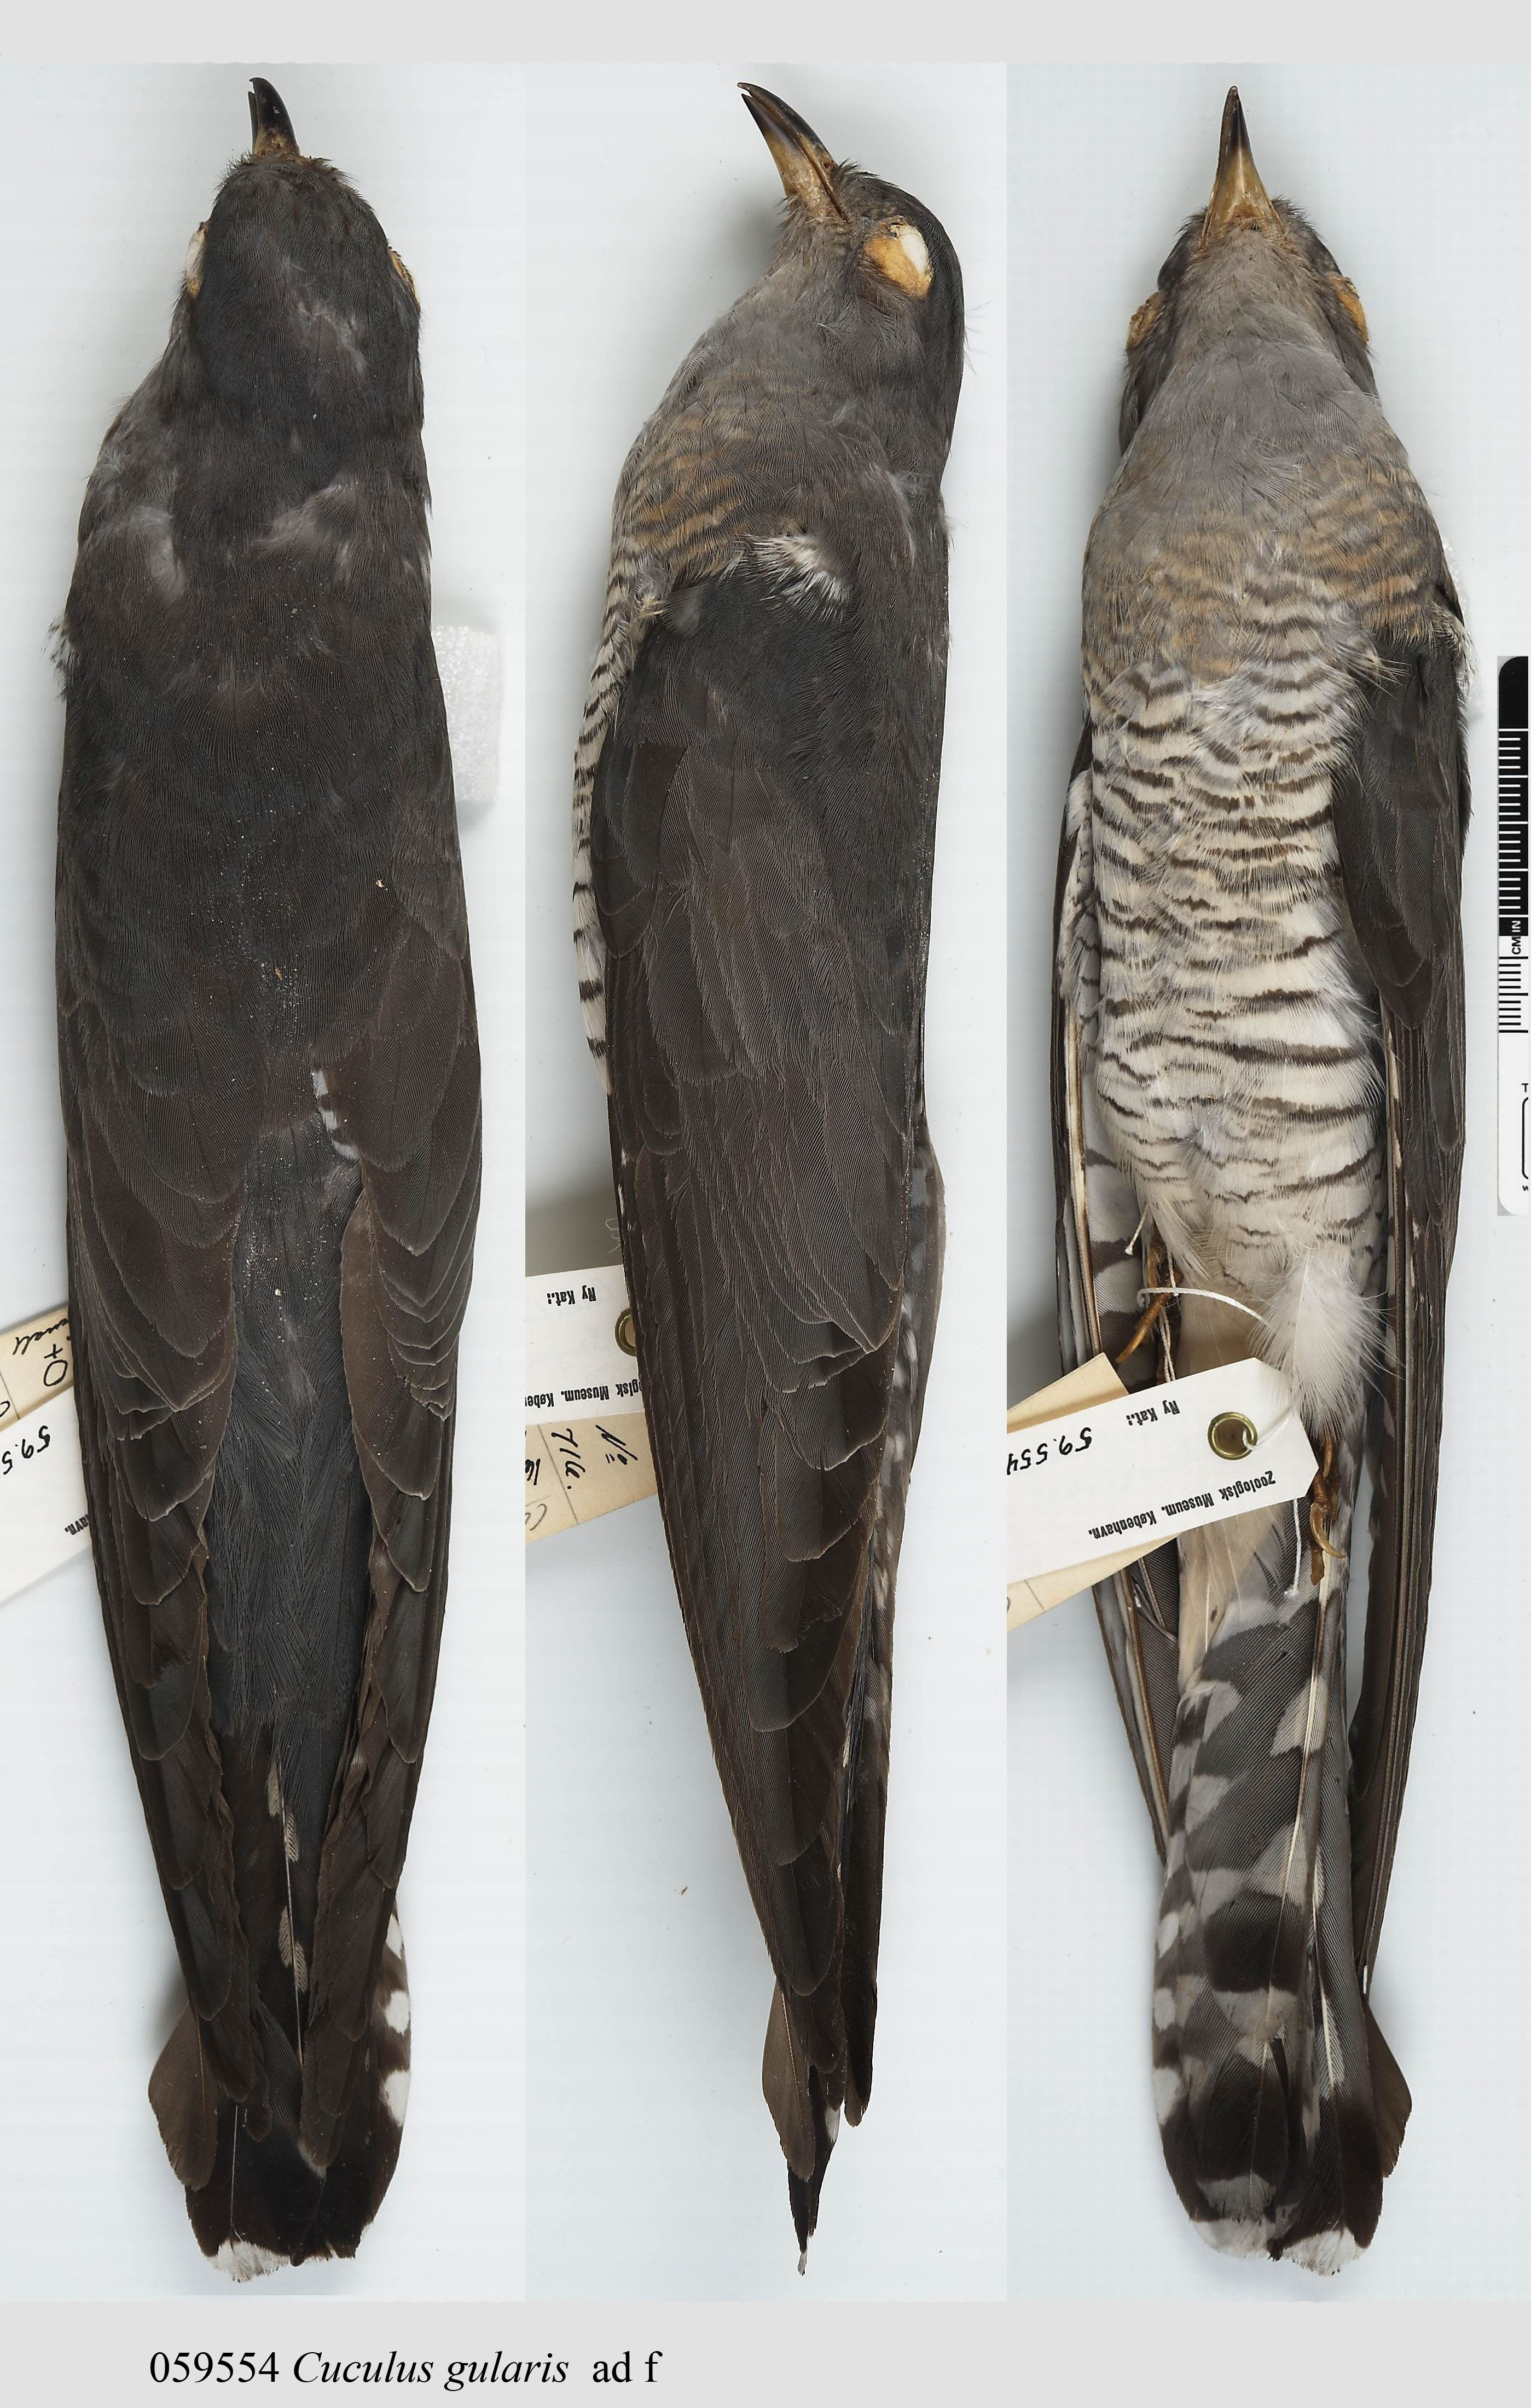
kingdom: Animalia
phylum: Chordata
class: Aves
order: Cuculiformes
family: Cuculidae
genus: Cuculus
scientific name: Cuculus gularis
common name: African cuckoo
